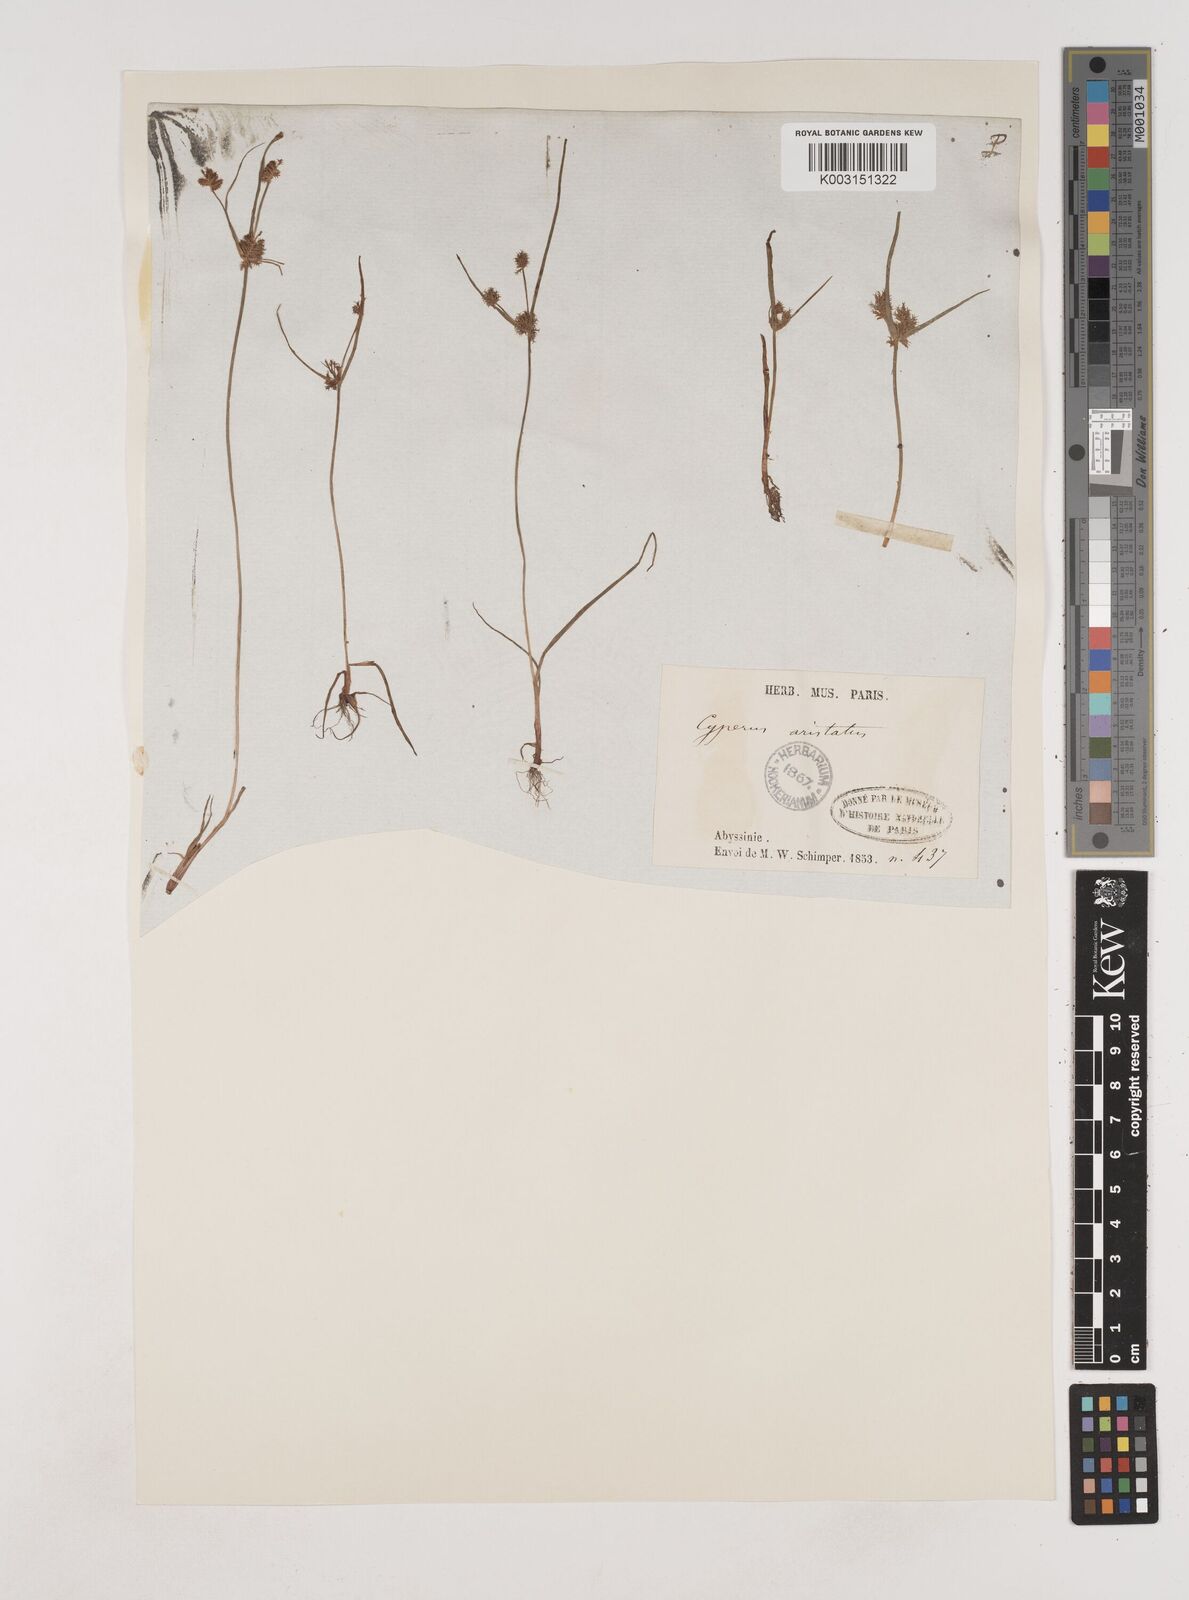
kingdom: Plantae
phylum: Tracheophyta
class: Liliopsida
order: Poales
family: Cyperaceae
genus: Cyperus
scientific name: Cyperus squarrosus
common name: Awned cyperus
